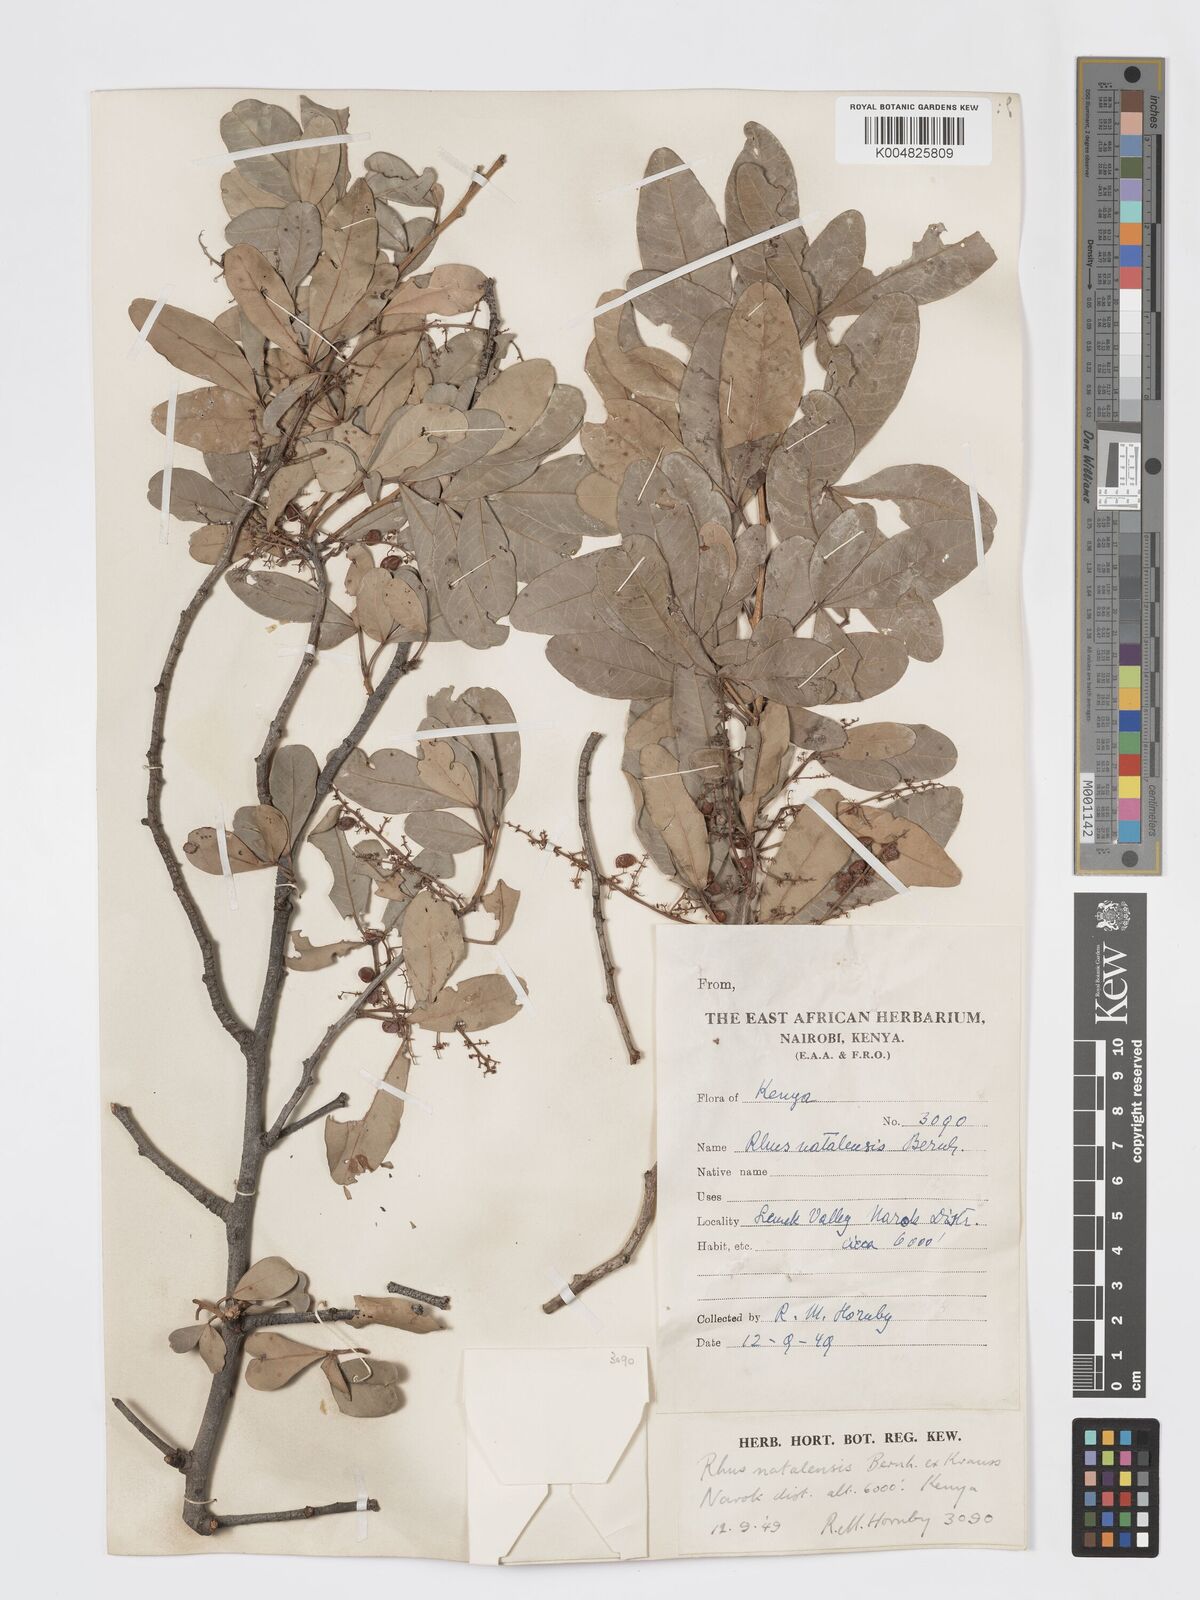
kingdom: Plantae
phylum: Tracheophyta
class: Magnoliopsida
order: Sapindales
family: Anacardiaceae
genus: Searsia
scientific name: Searsia natalensis
